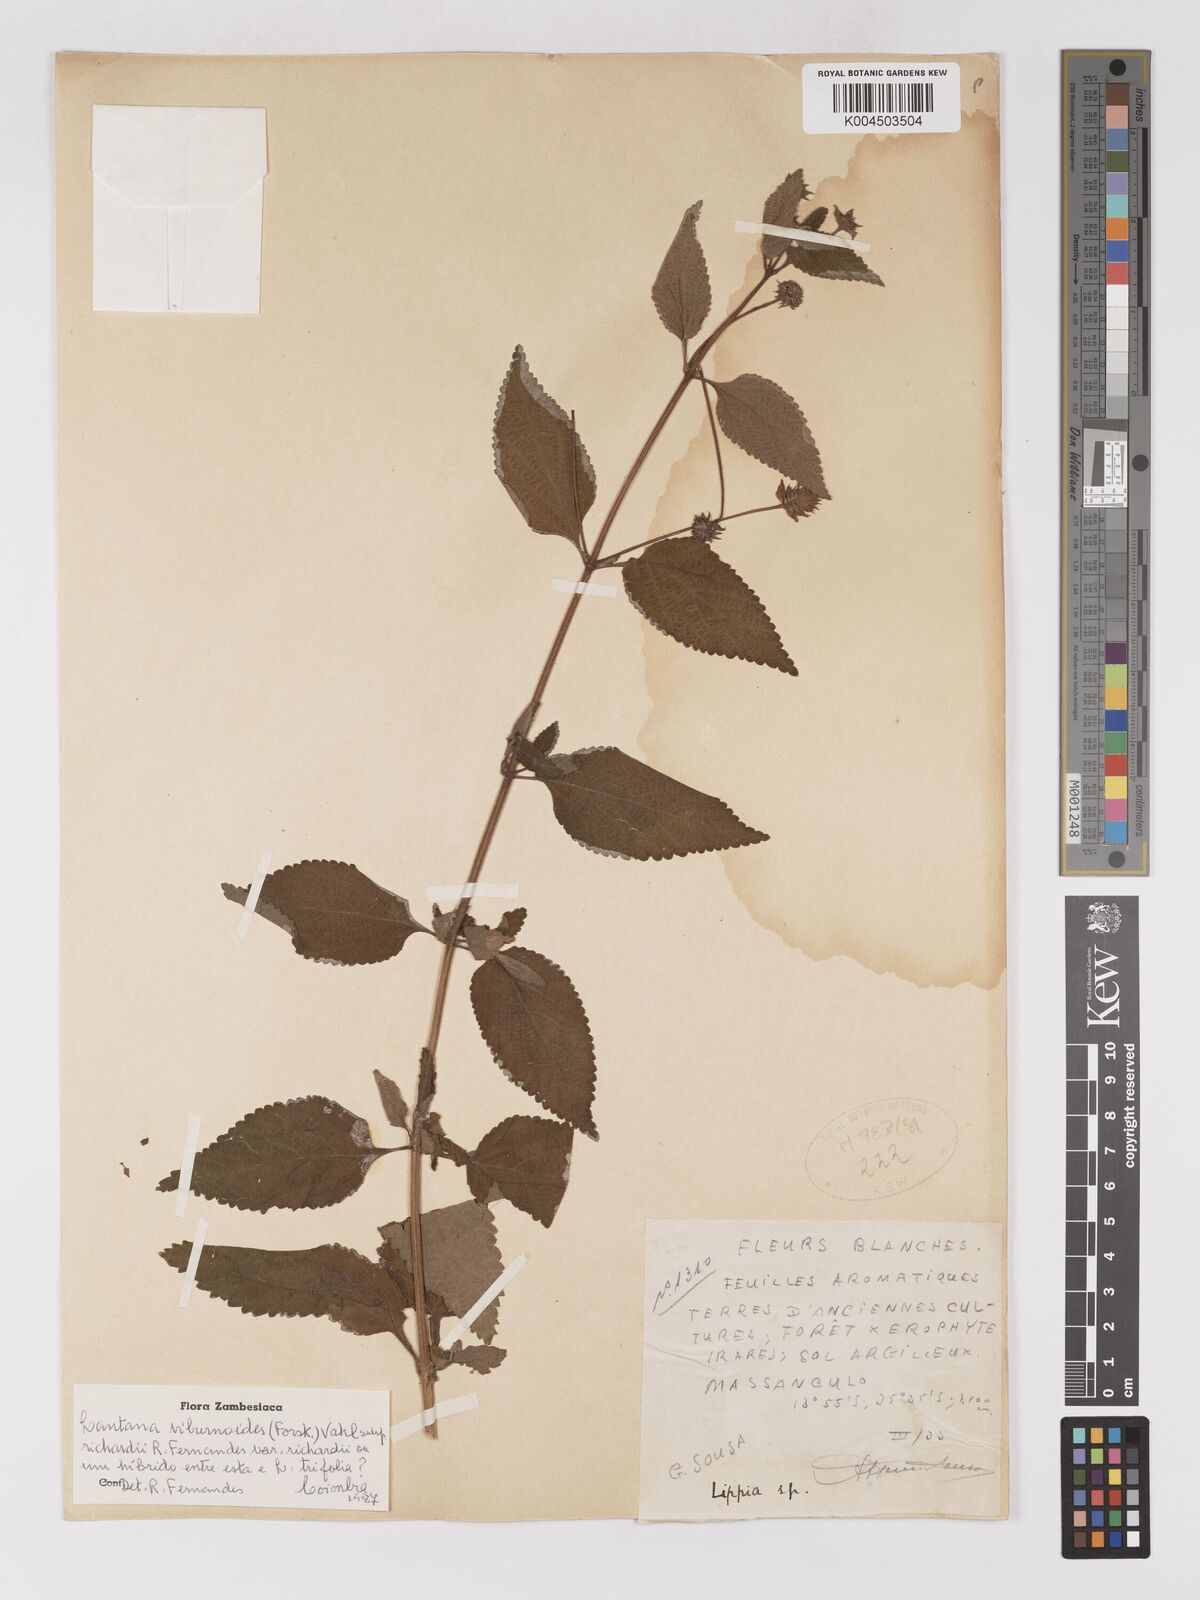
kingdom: Plantae
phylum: Tracheophyta
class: Magnoliopsida
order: Lamiales
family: Verbenaceae
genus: Lantana
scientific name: Lantana
